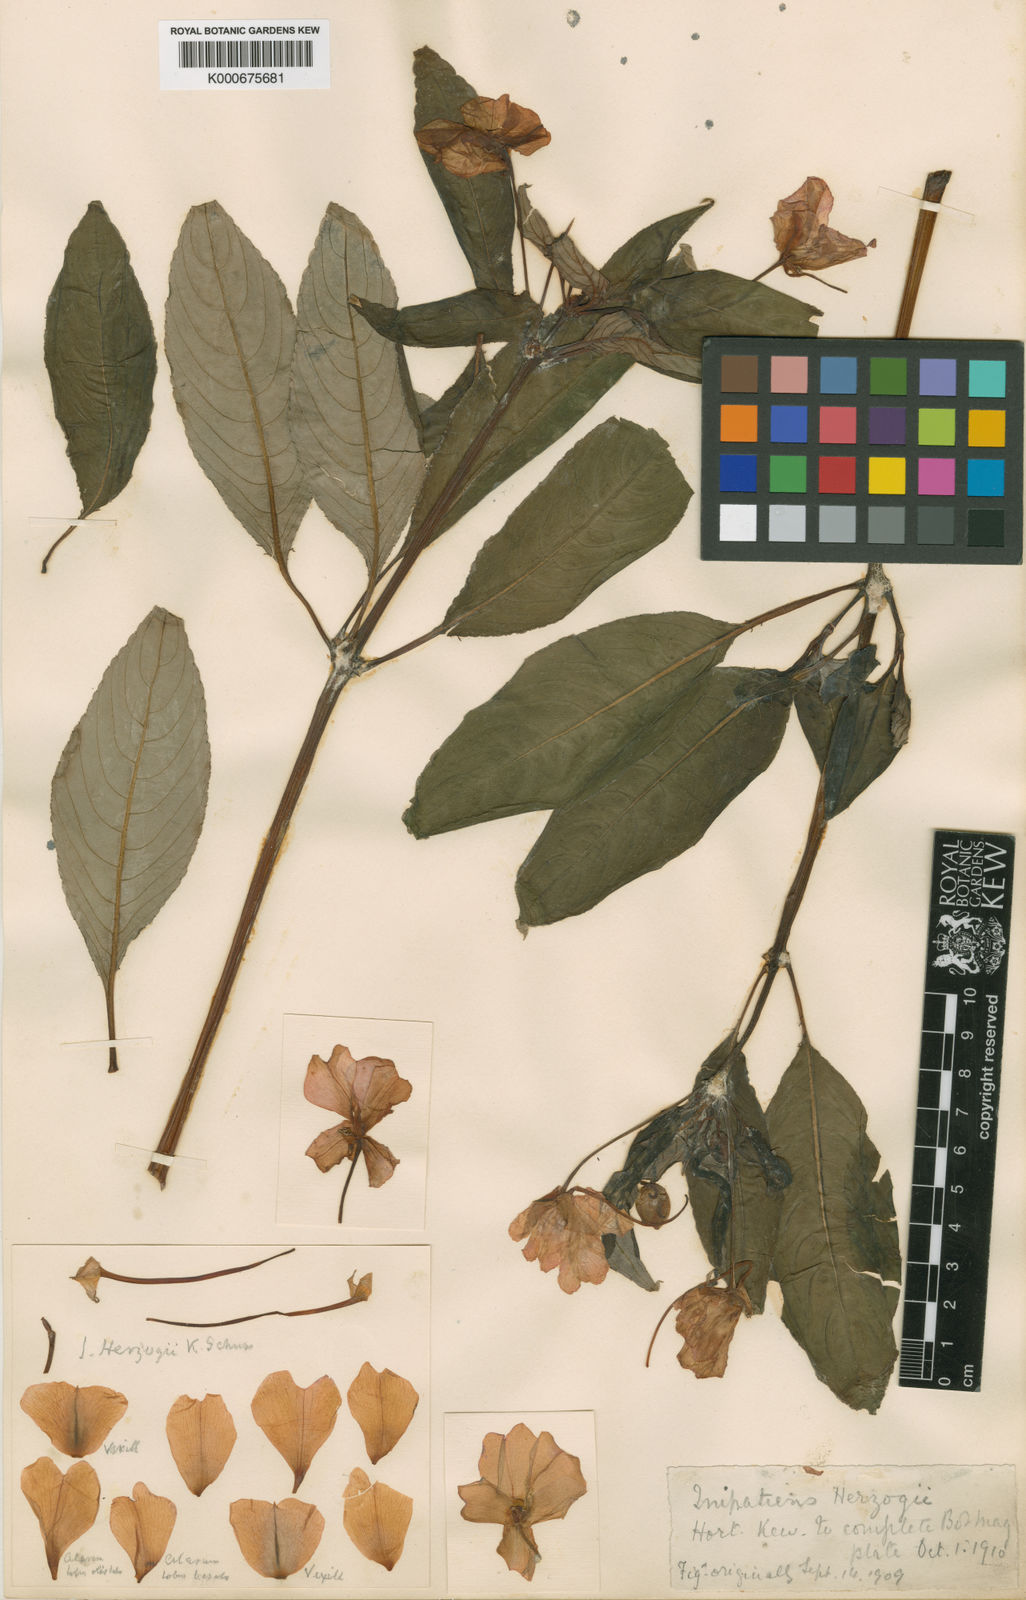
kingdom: Plantae
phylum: Tracheophyta
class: Magnoliopsida
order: Ericales
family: Balsaminaceae
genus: Impatiens
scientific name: Impatiens hawkeri
